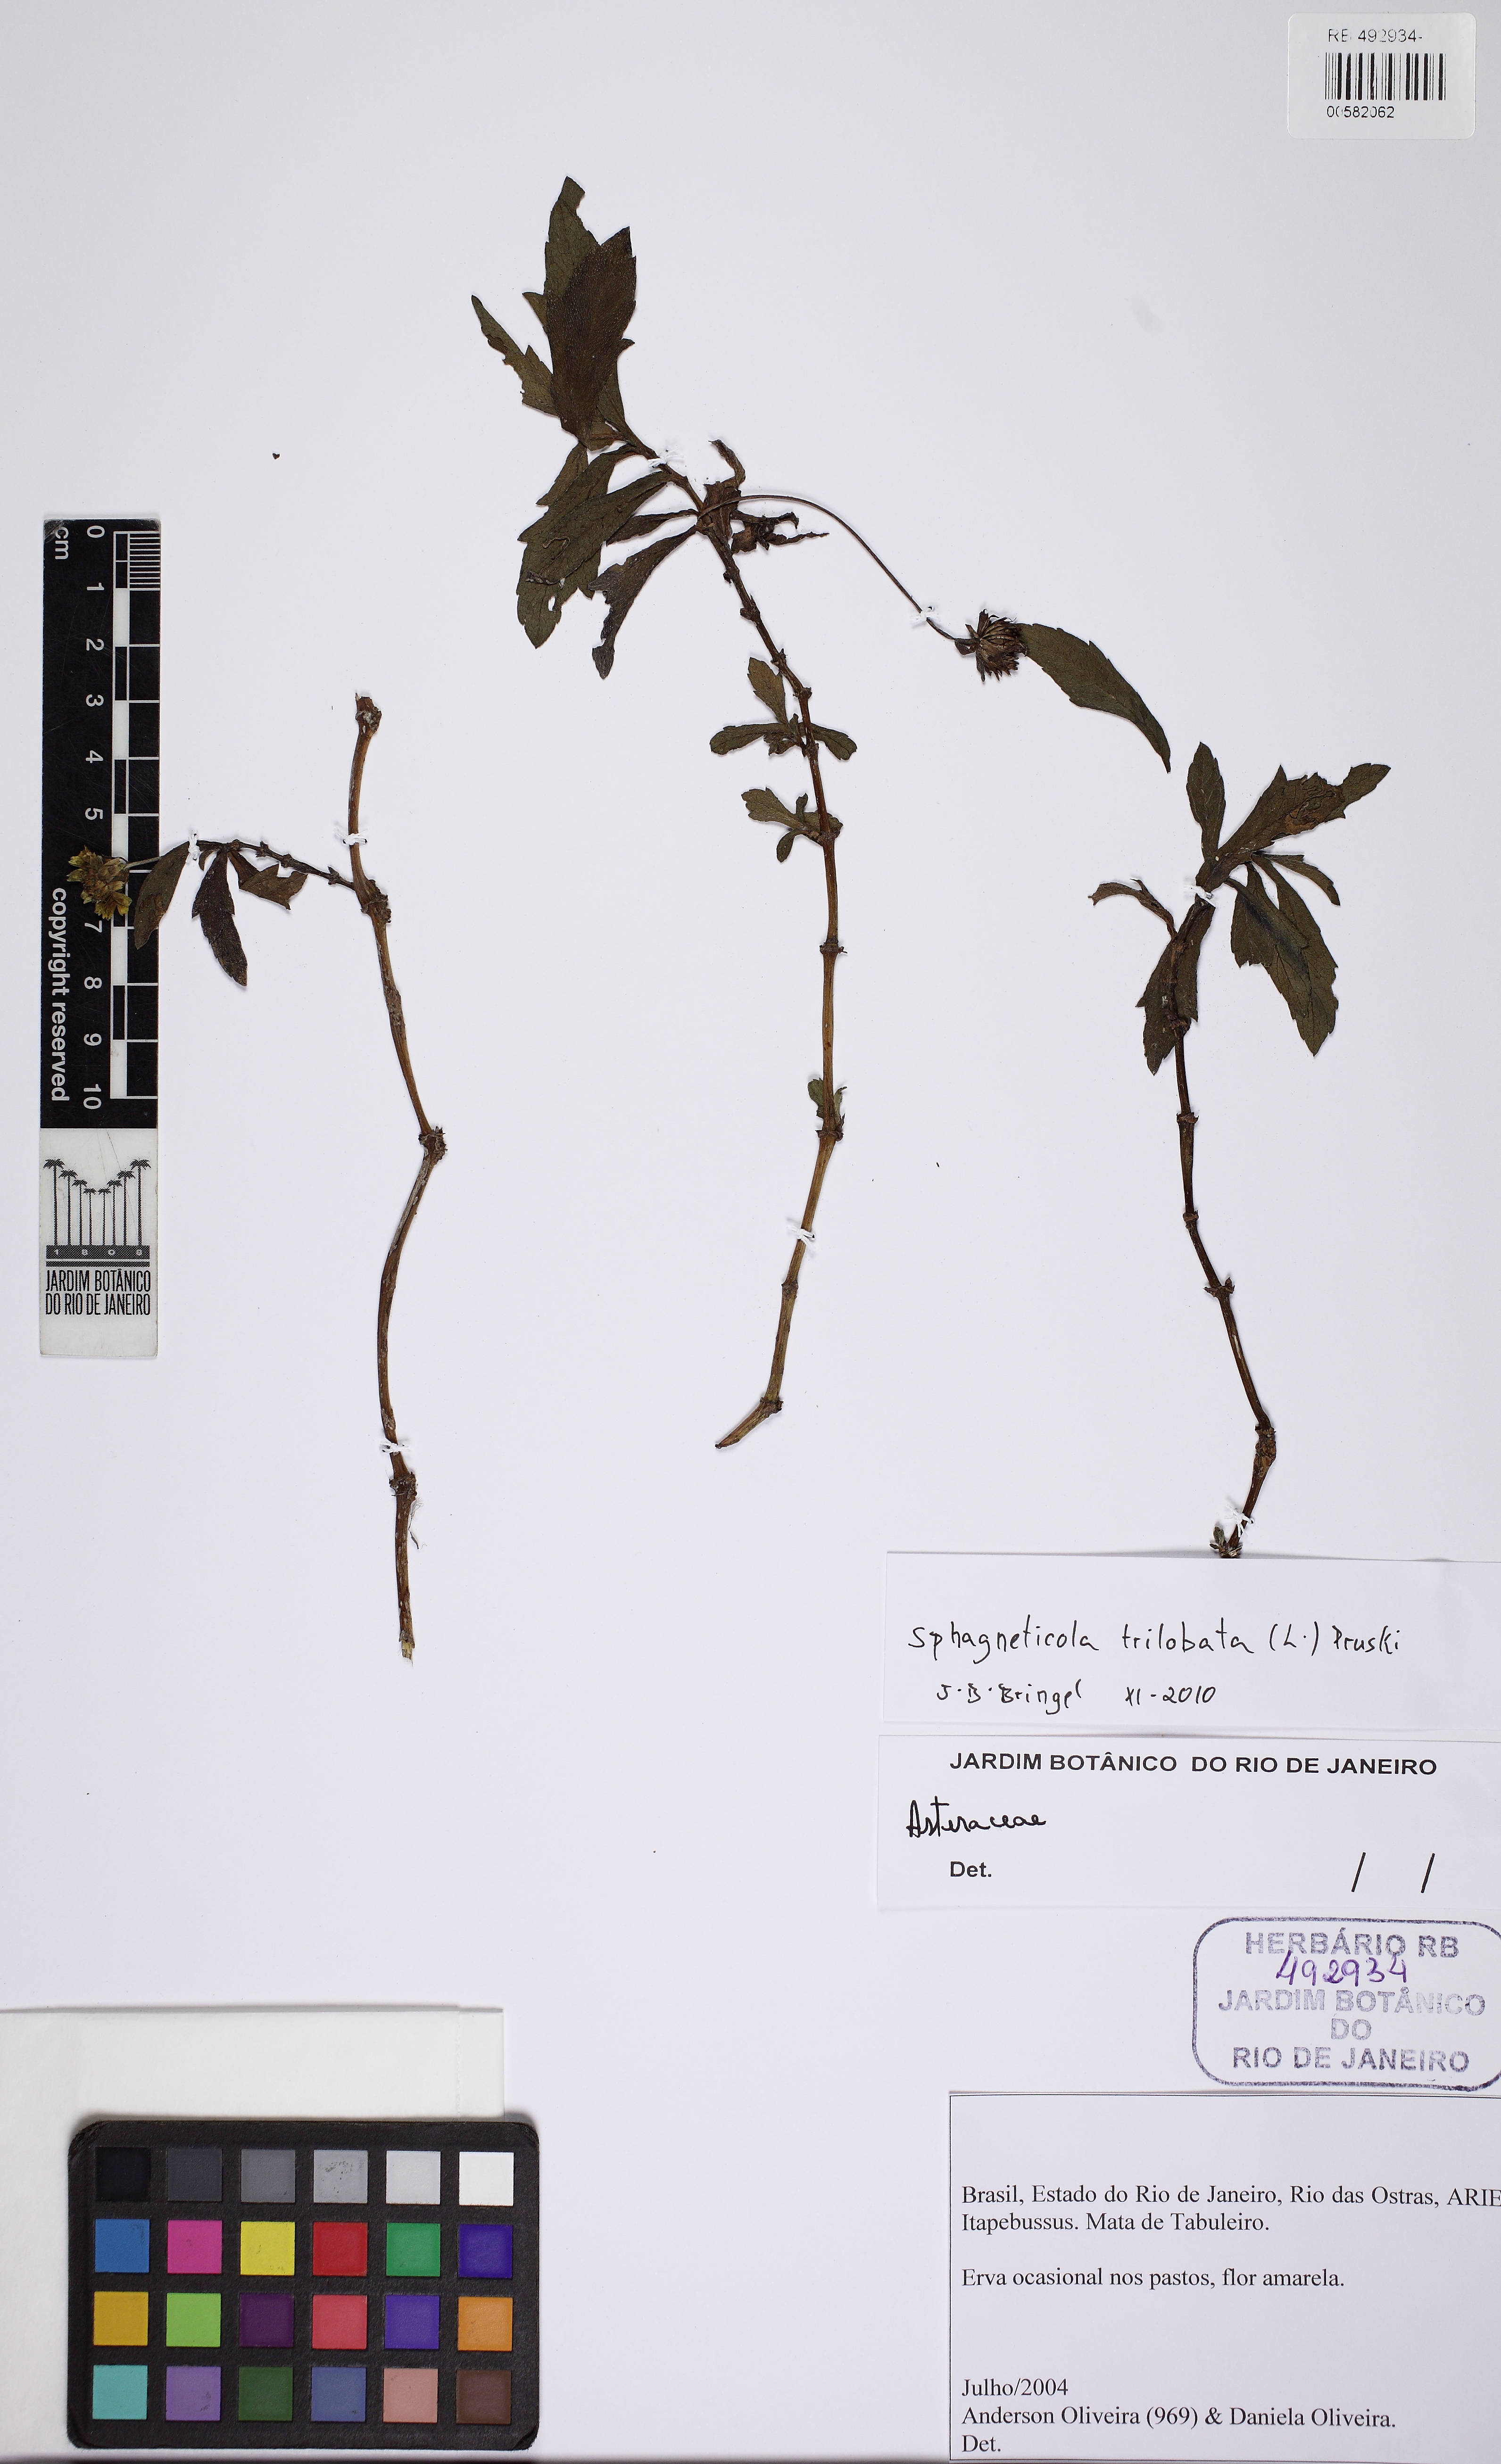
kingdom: Plantae
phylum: Tracheophyta
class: Magnoliopsida
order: Asterales
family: Asteraceae
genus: Sphagneticola
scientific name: Sphagneticola trilobata
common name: Bay biscayne creeping-oxeye
